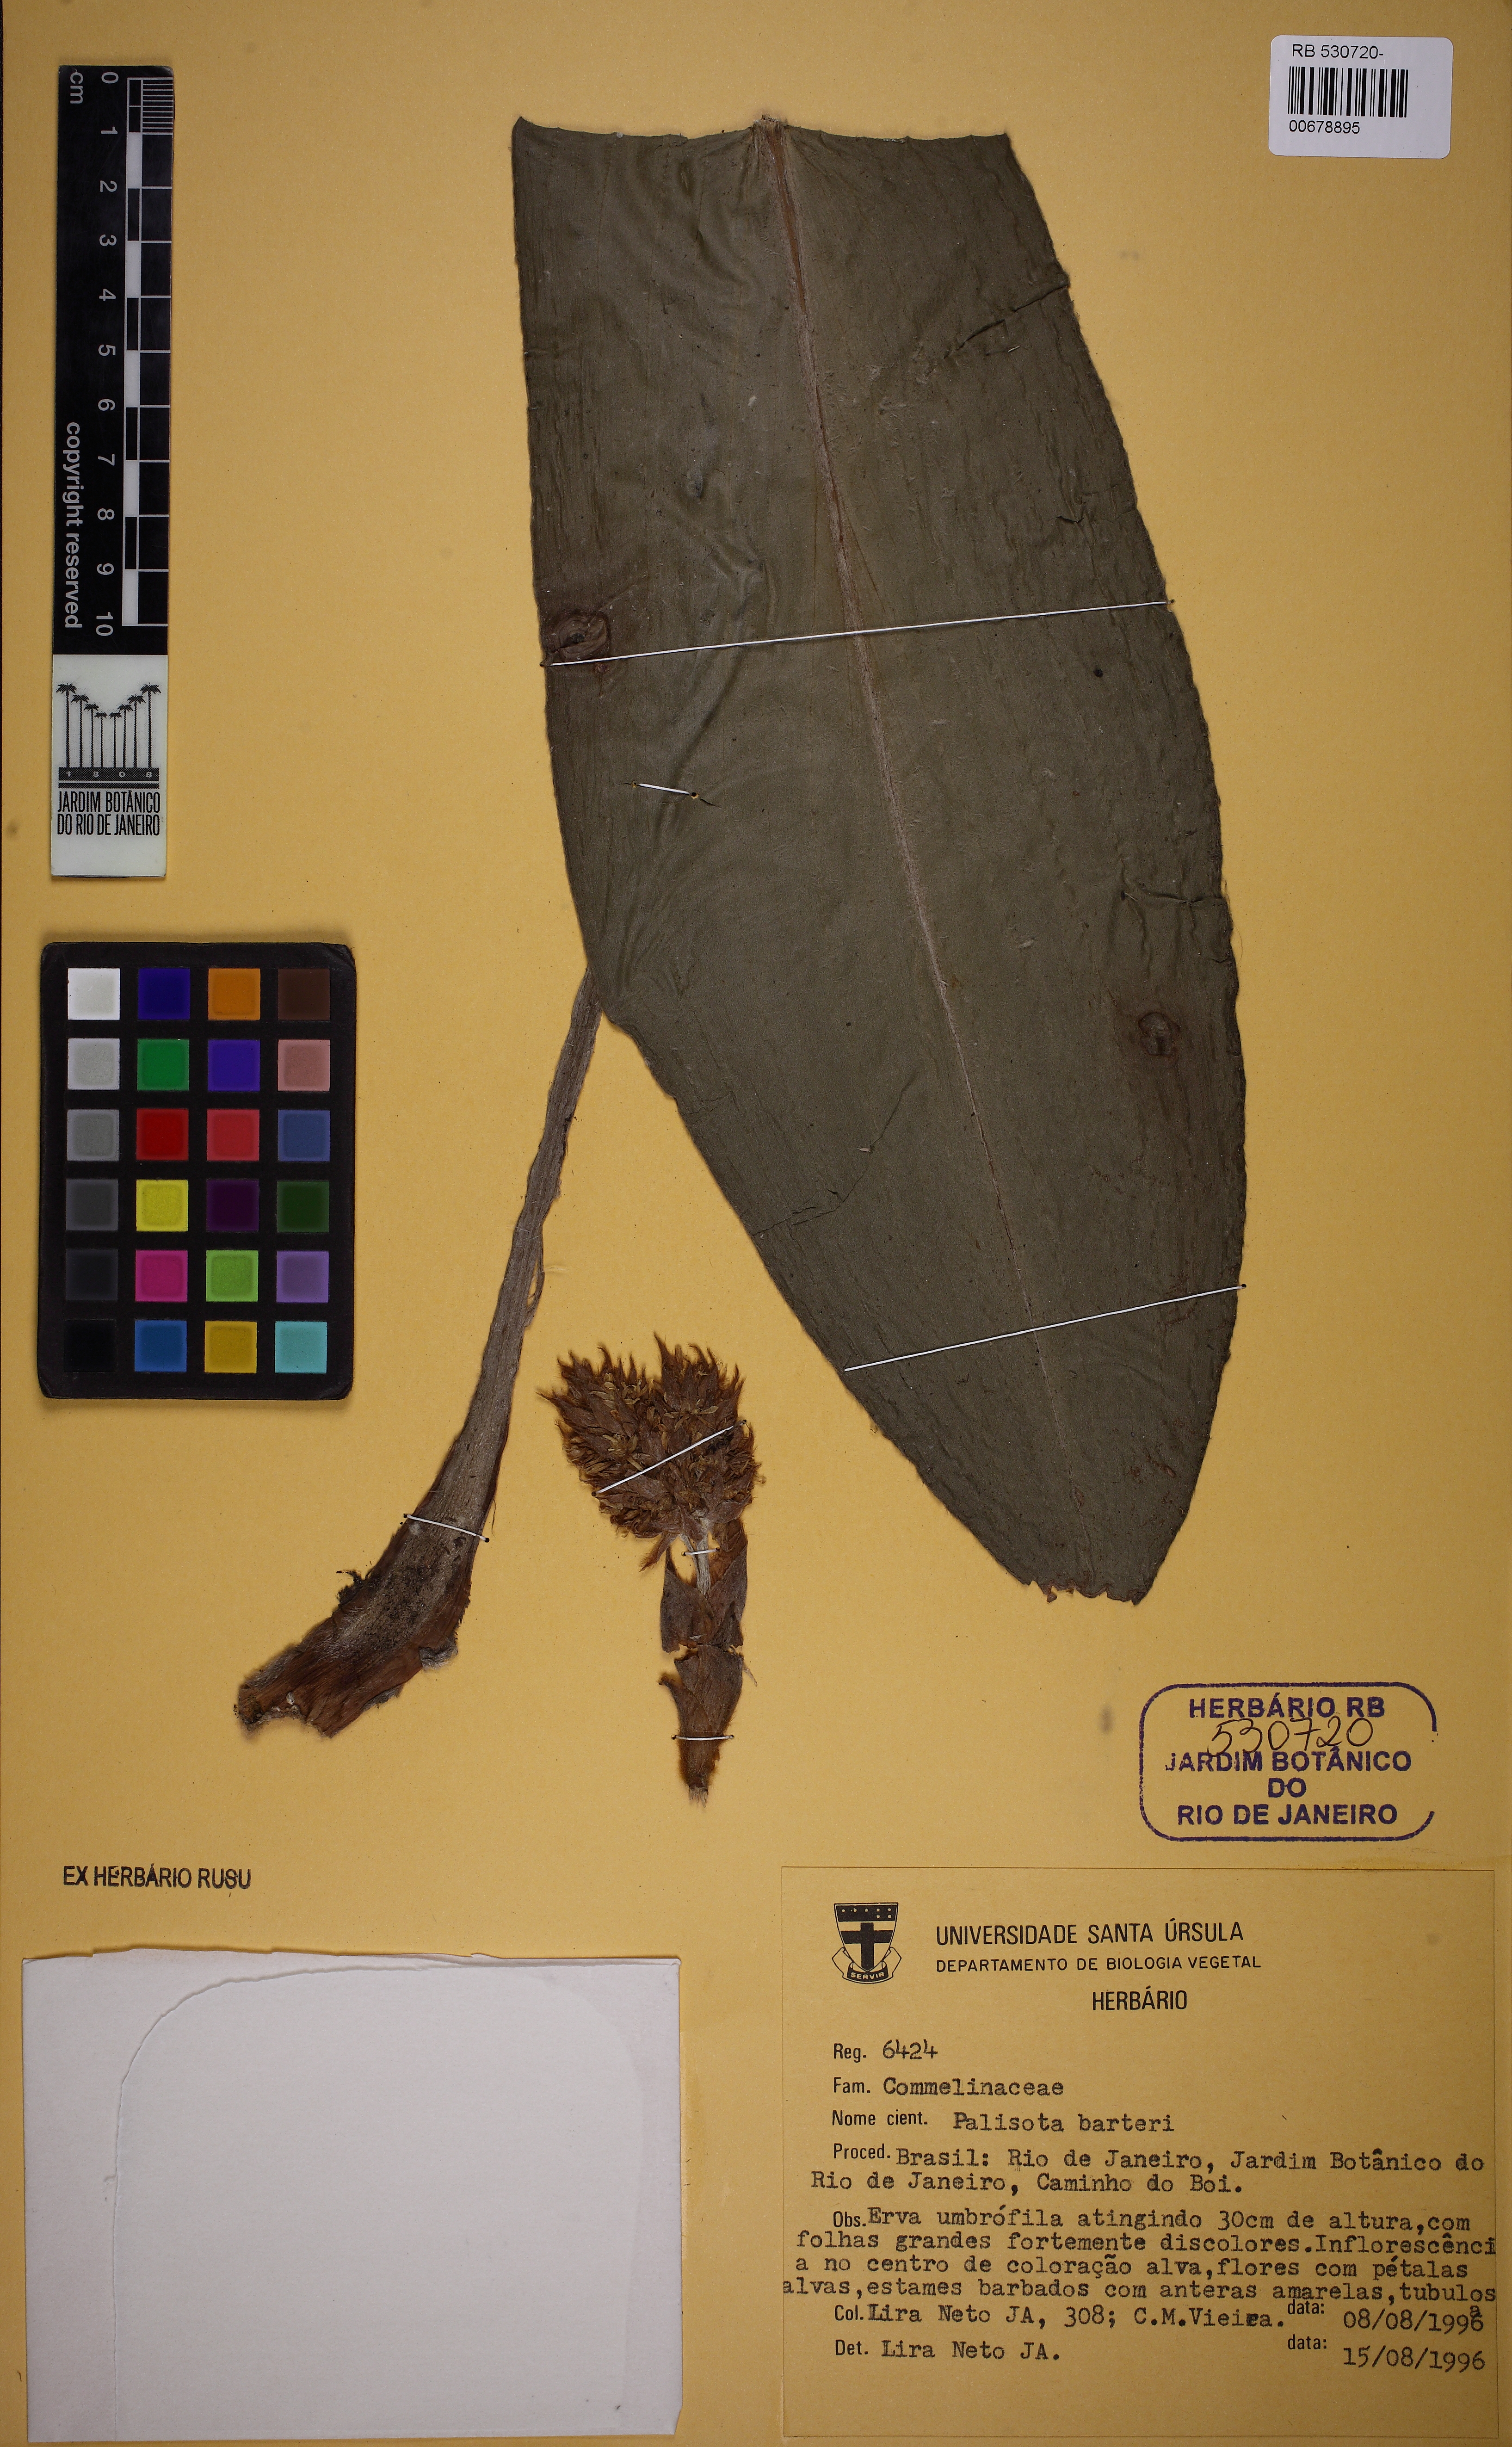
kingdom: Plantae
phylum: Tracheophyta
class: Liliopsida
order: Commelinales
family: Commelinaceae
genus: Palisota
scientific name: Palisota barteri
